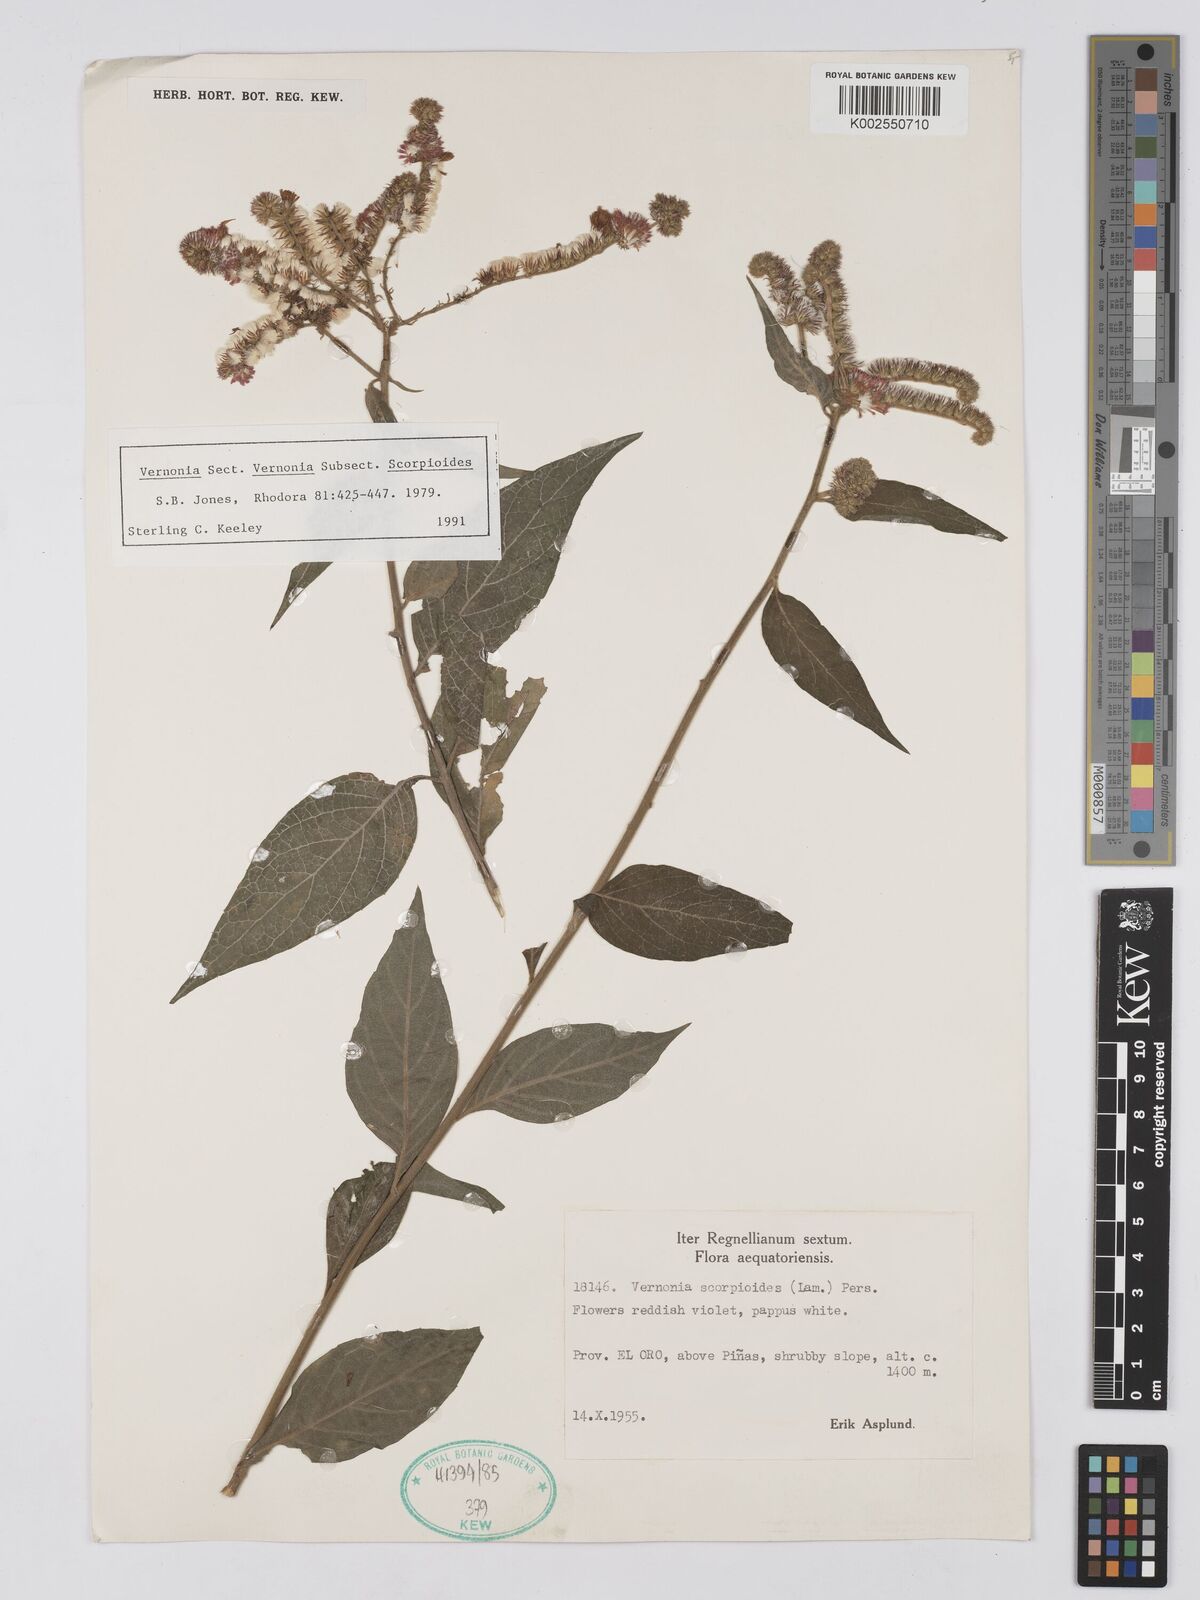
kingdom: Plantae
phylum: Tracheophyta
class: Magnoliopsida
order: Asterales
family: Asteraceae
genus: Cyrtocymura
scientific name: Cyrtocymura scorpioides
